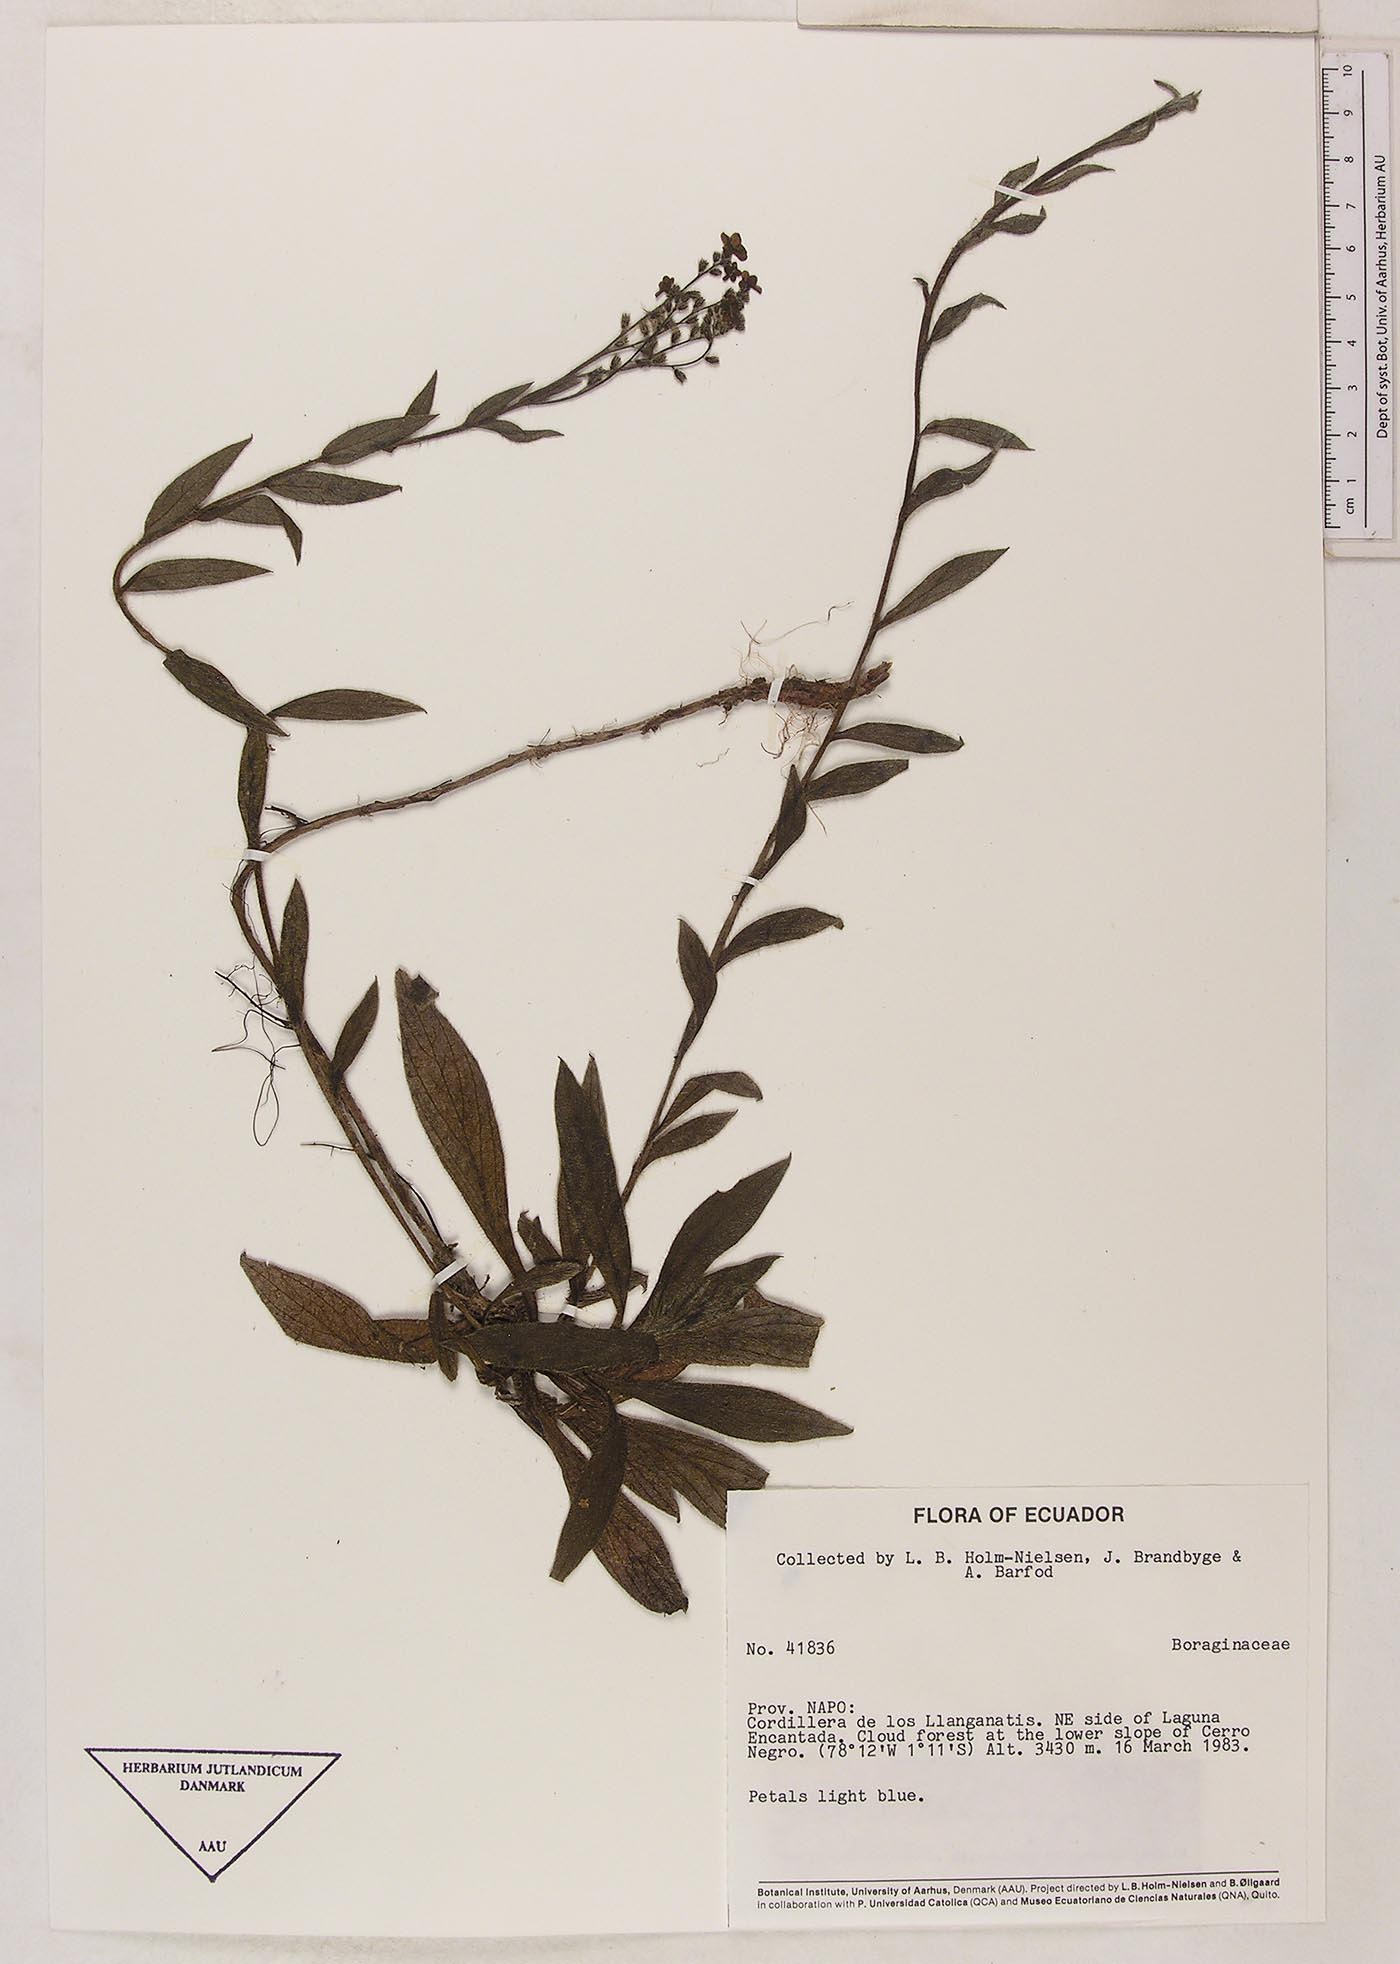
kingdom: Plantae
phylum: Tracheophyta
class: Magnoliopsida
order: Boraginales
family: Boraginaceae
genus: Moritzia
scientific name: Moritzia lindenii
